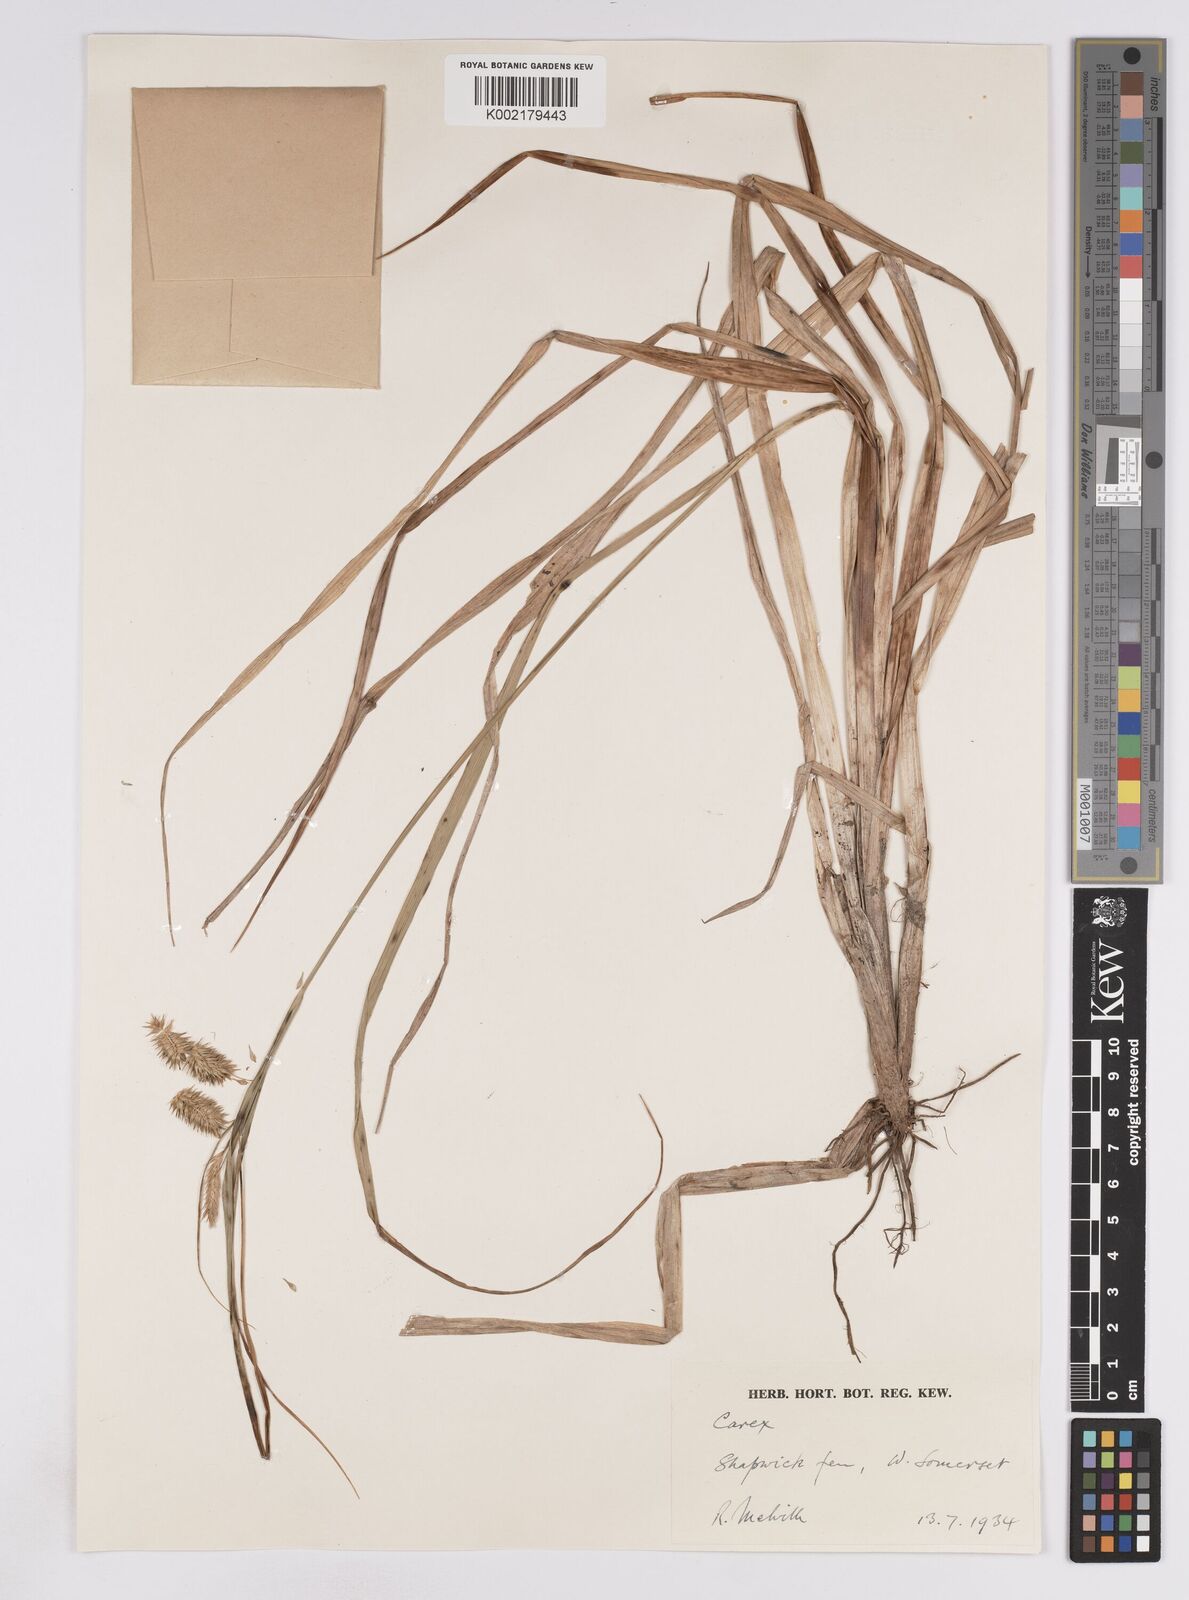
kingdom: Plantae
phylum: Tracheophyta
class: Liliopsida
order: Poales
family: Cyperaceae
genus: Carex
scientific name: Carex pseudocyperus
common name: Cyperus sedge
